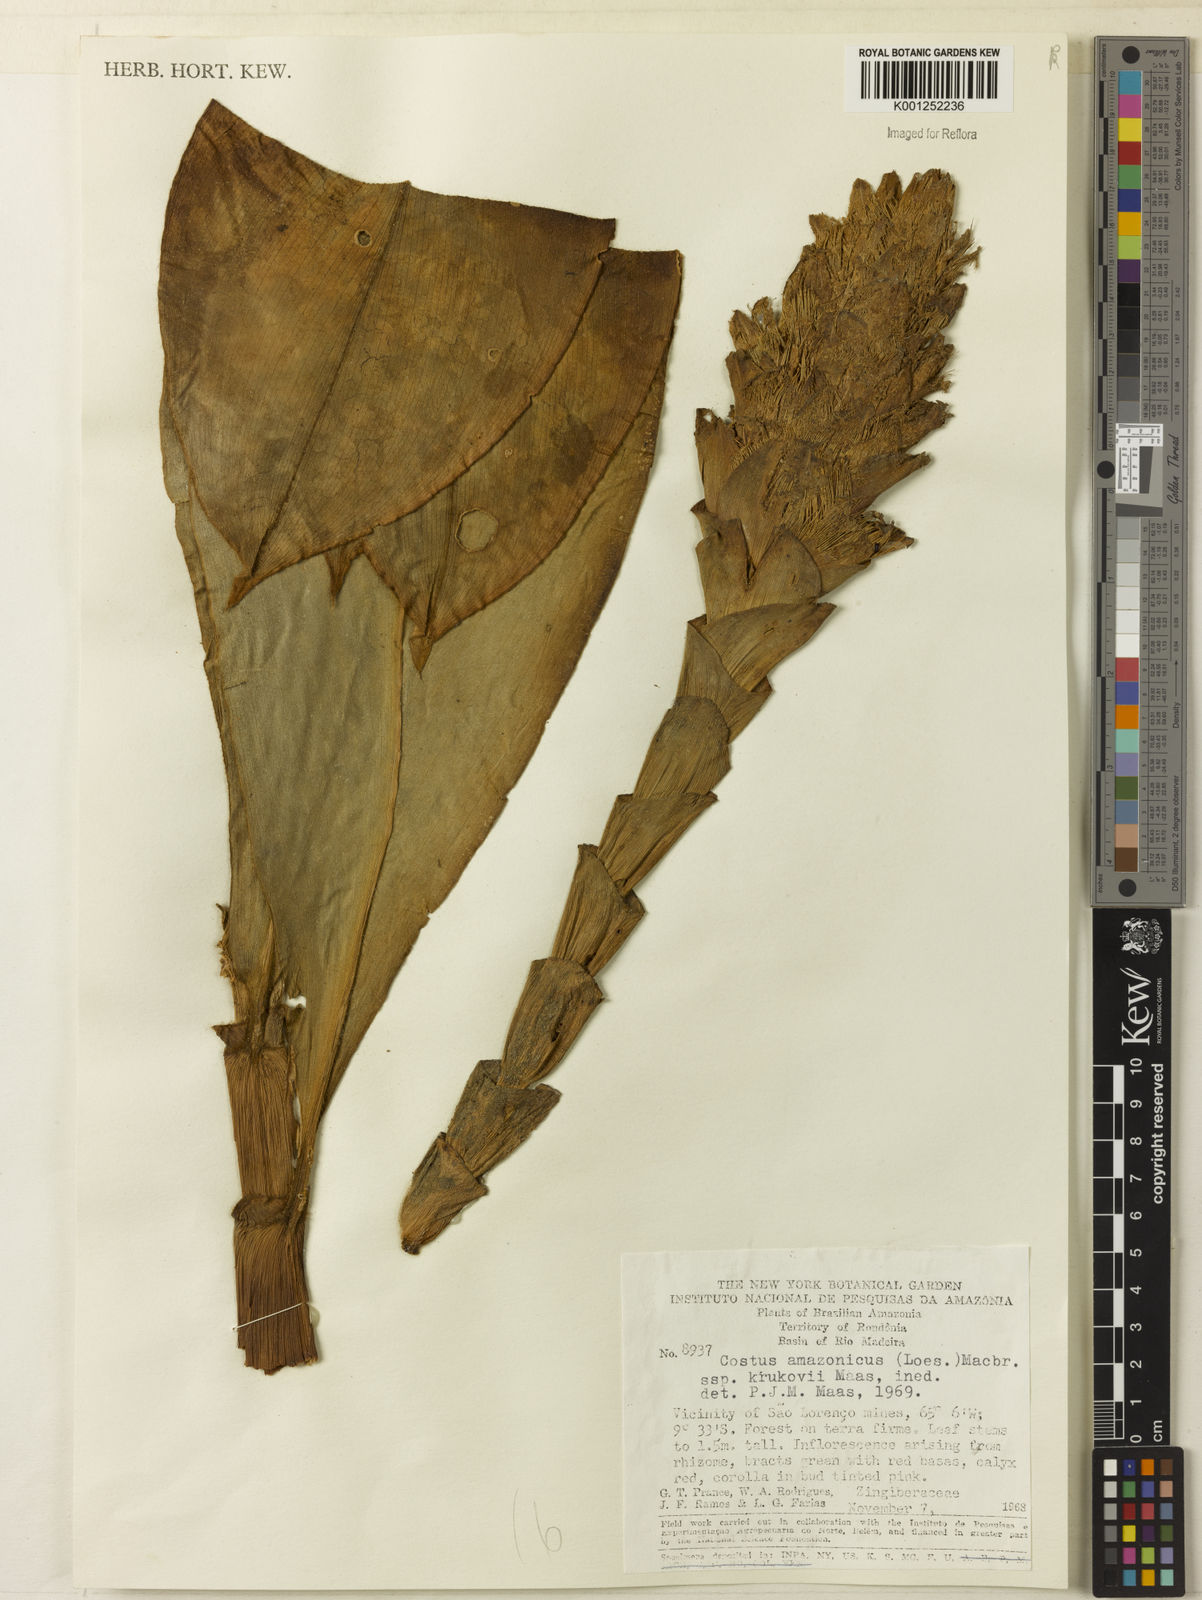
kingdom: Plantae
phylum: Tracheophyta
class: Liliopsida
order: Zingiberales
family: Costaceae
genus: Costus
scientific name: Costus amazonicus
